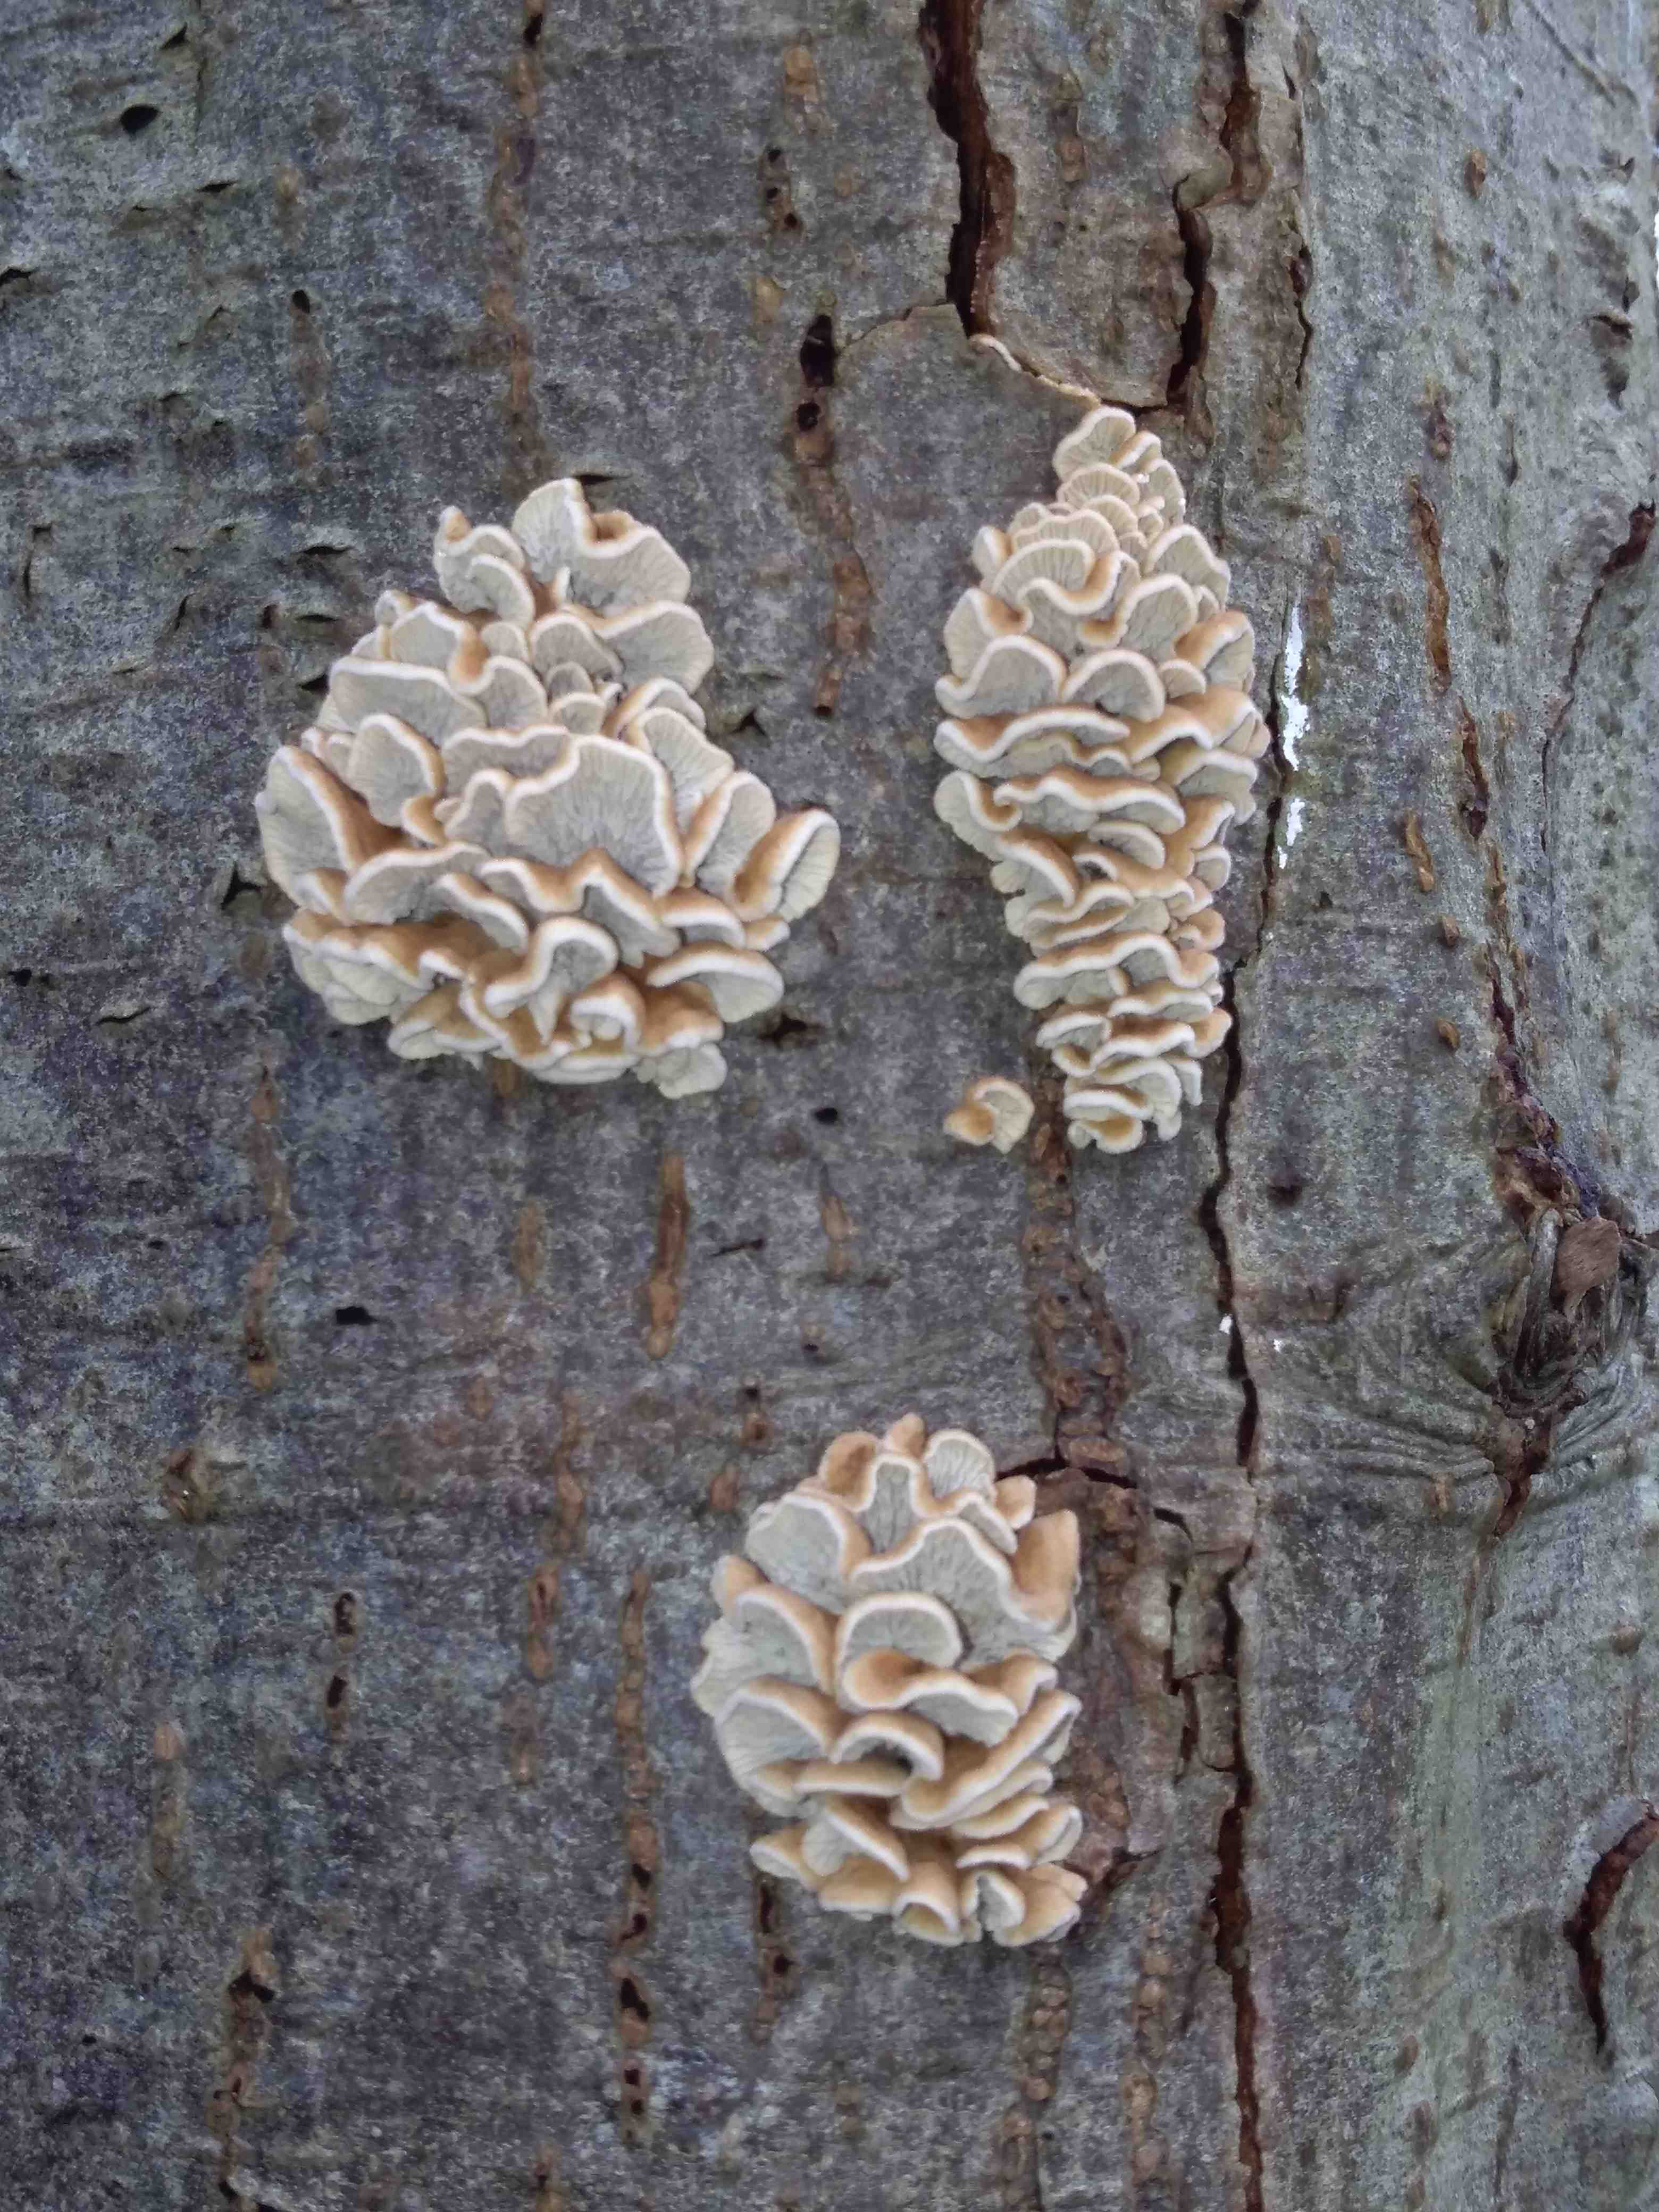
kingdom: Fungi
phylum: Basidiomycota
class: Agaricomycetes
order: Amylocorticiales
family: Amylocorticiaceae
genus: Plicaturopsis
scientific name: Plicaturopsis crispa
